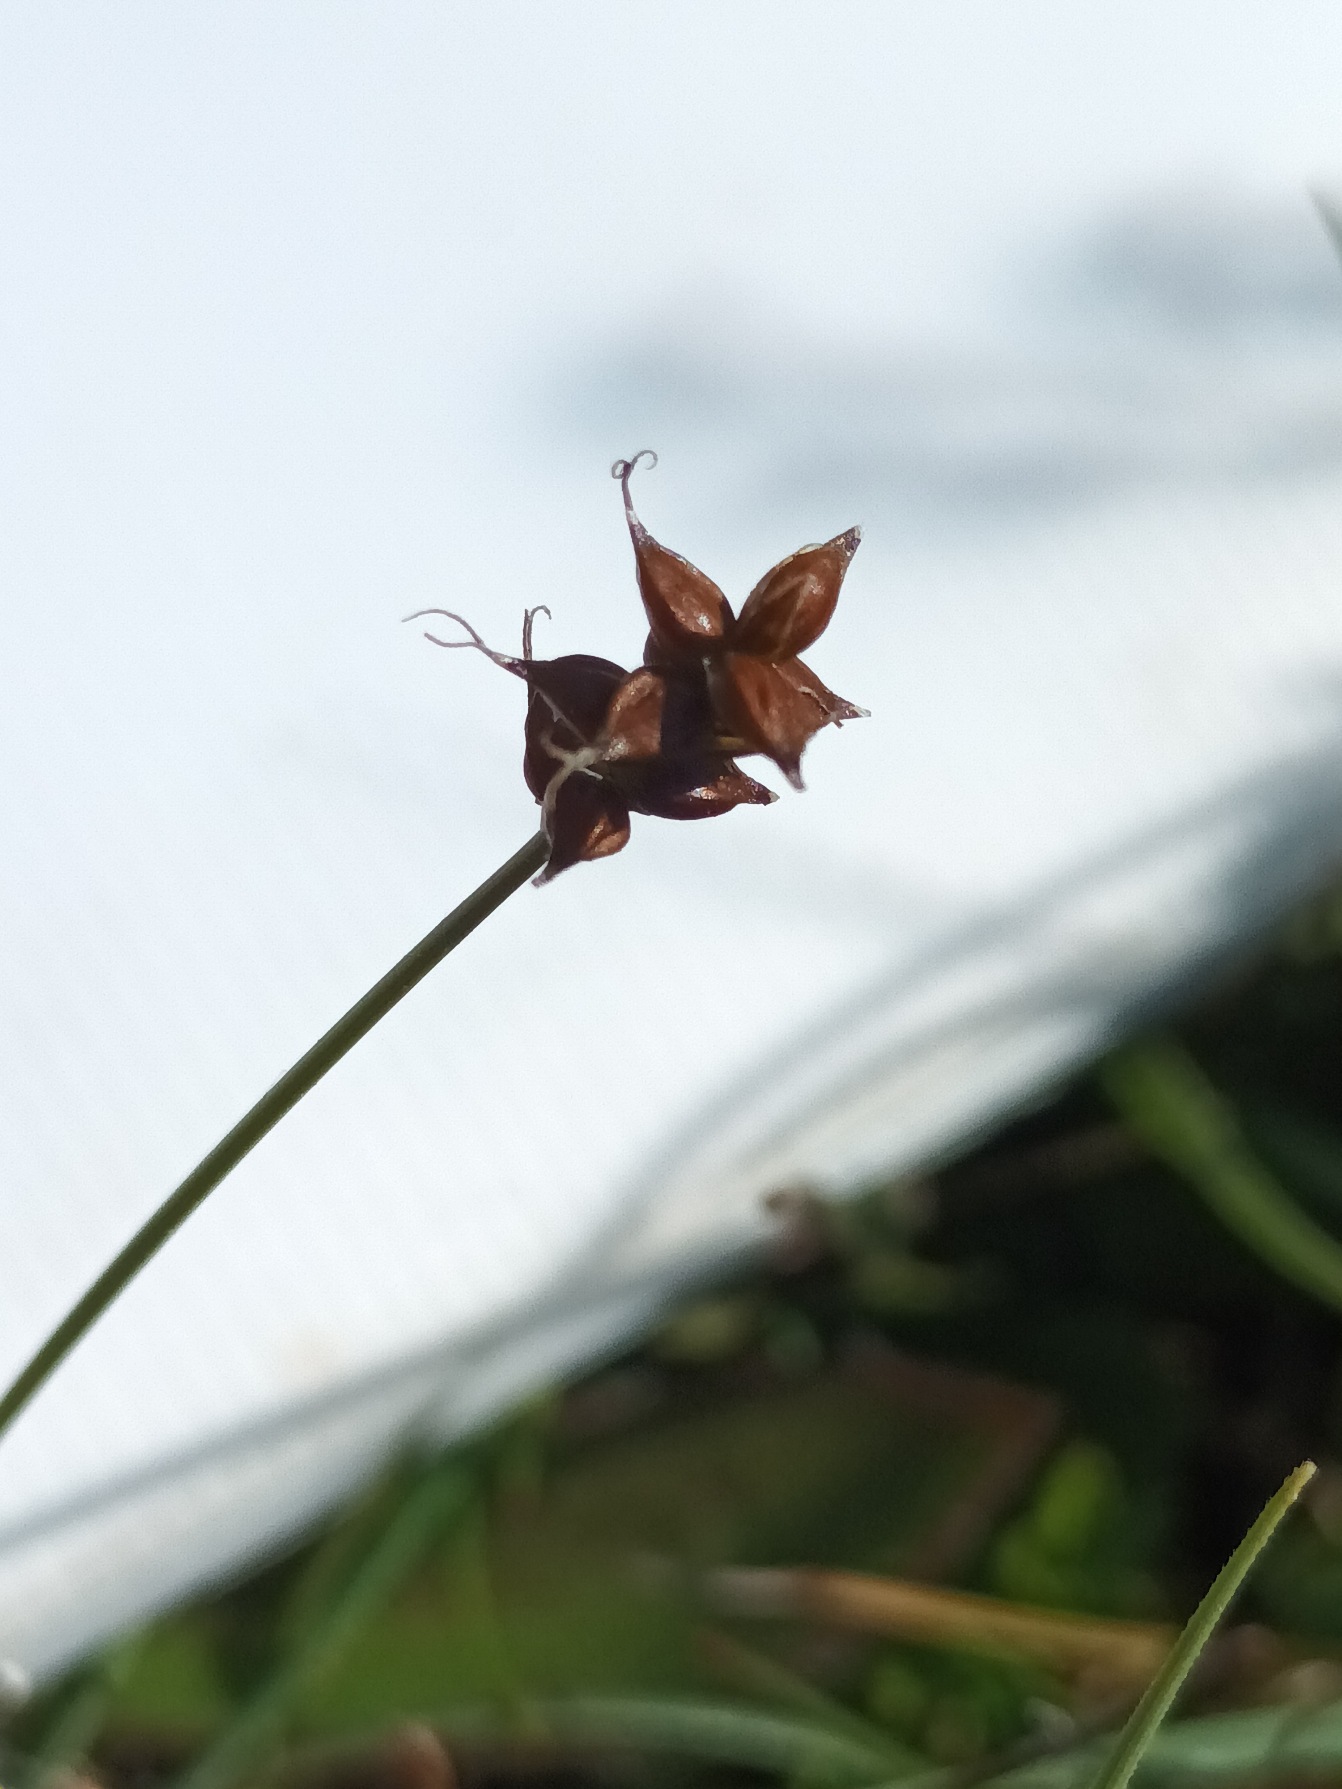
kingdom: Plantae
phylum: Tracheophyta
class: Liliopsida
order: Poales
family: Cyperaceae
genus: Carex
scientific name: Carex dioica
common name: Tvebo star
